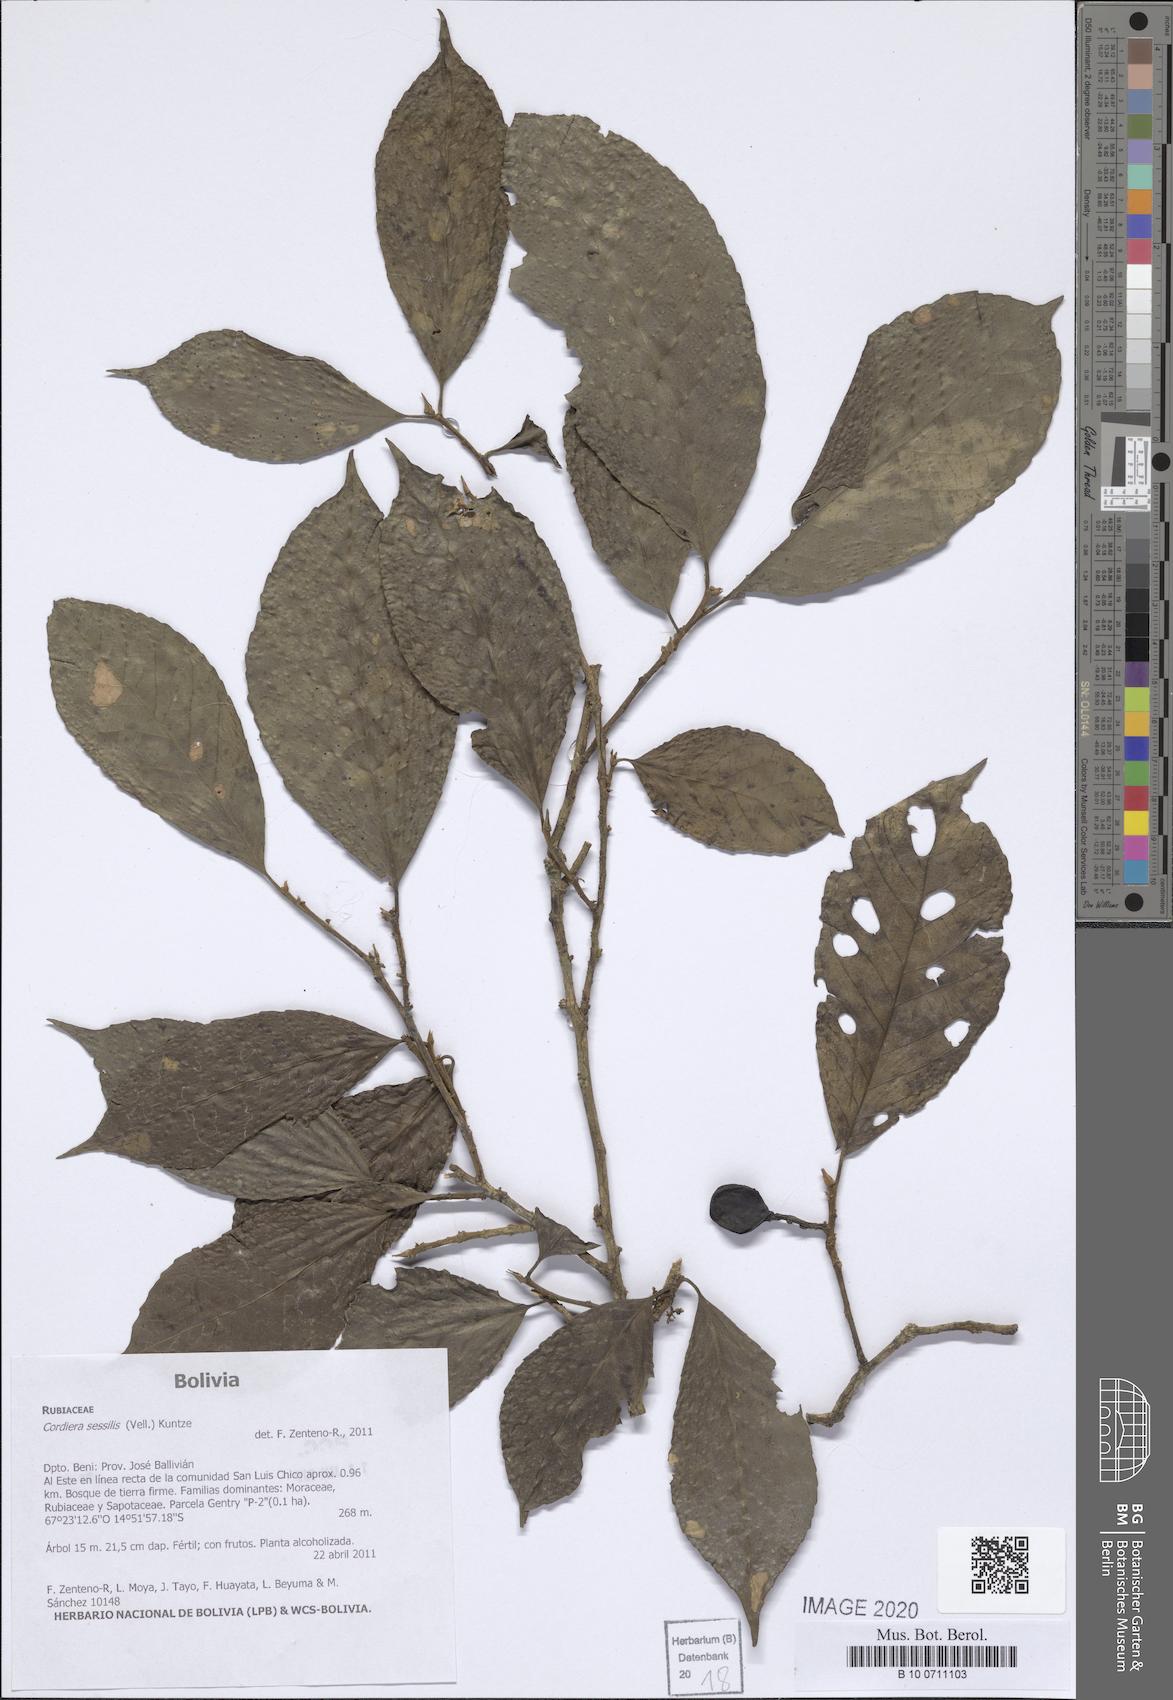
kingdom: Plantae
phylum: Tracheophyta
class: Magnoliopsida
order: Gentianales
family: Rubiaceae
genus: Cordiera
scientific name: Cordiera sessilis
